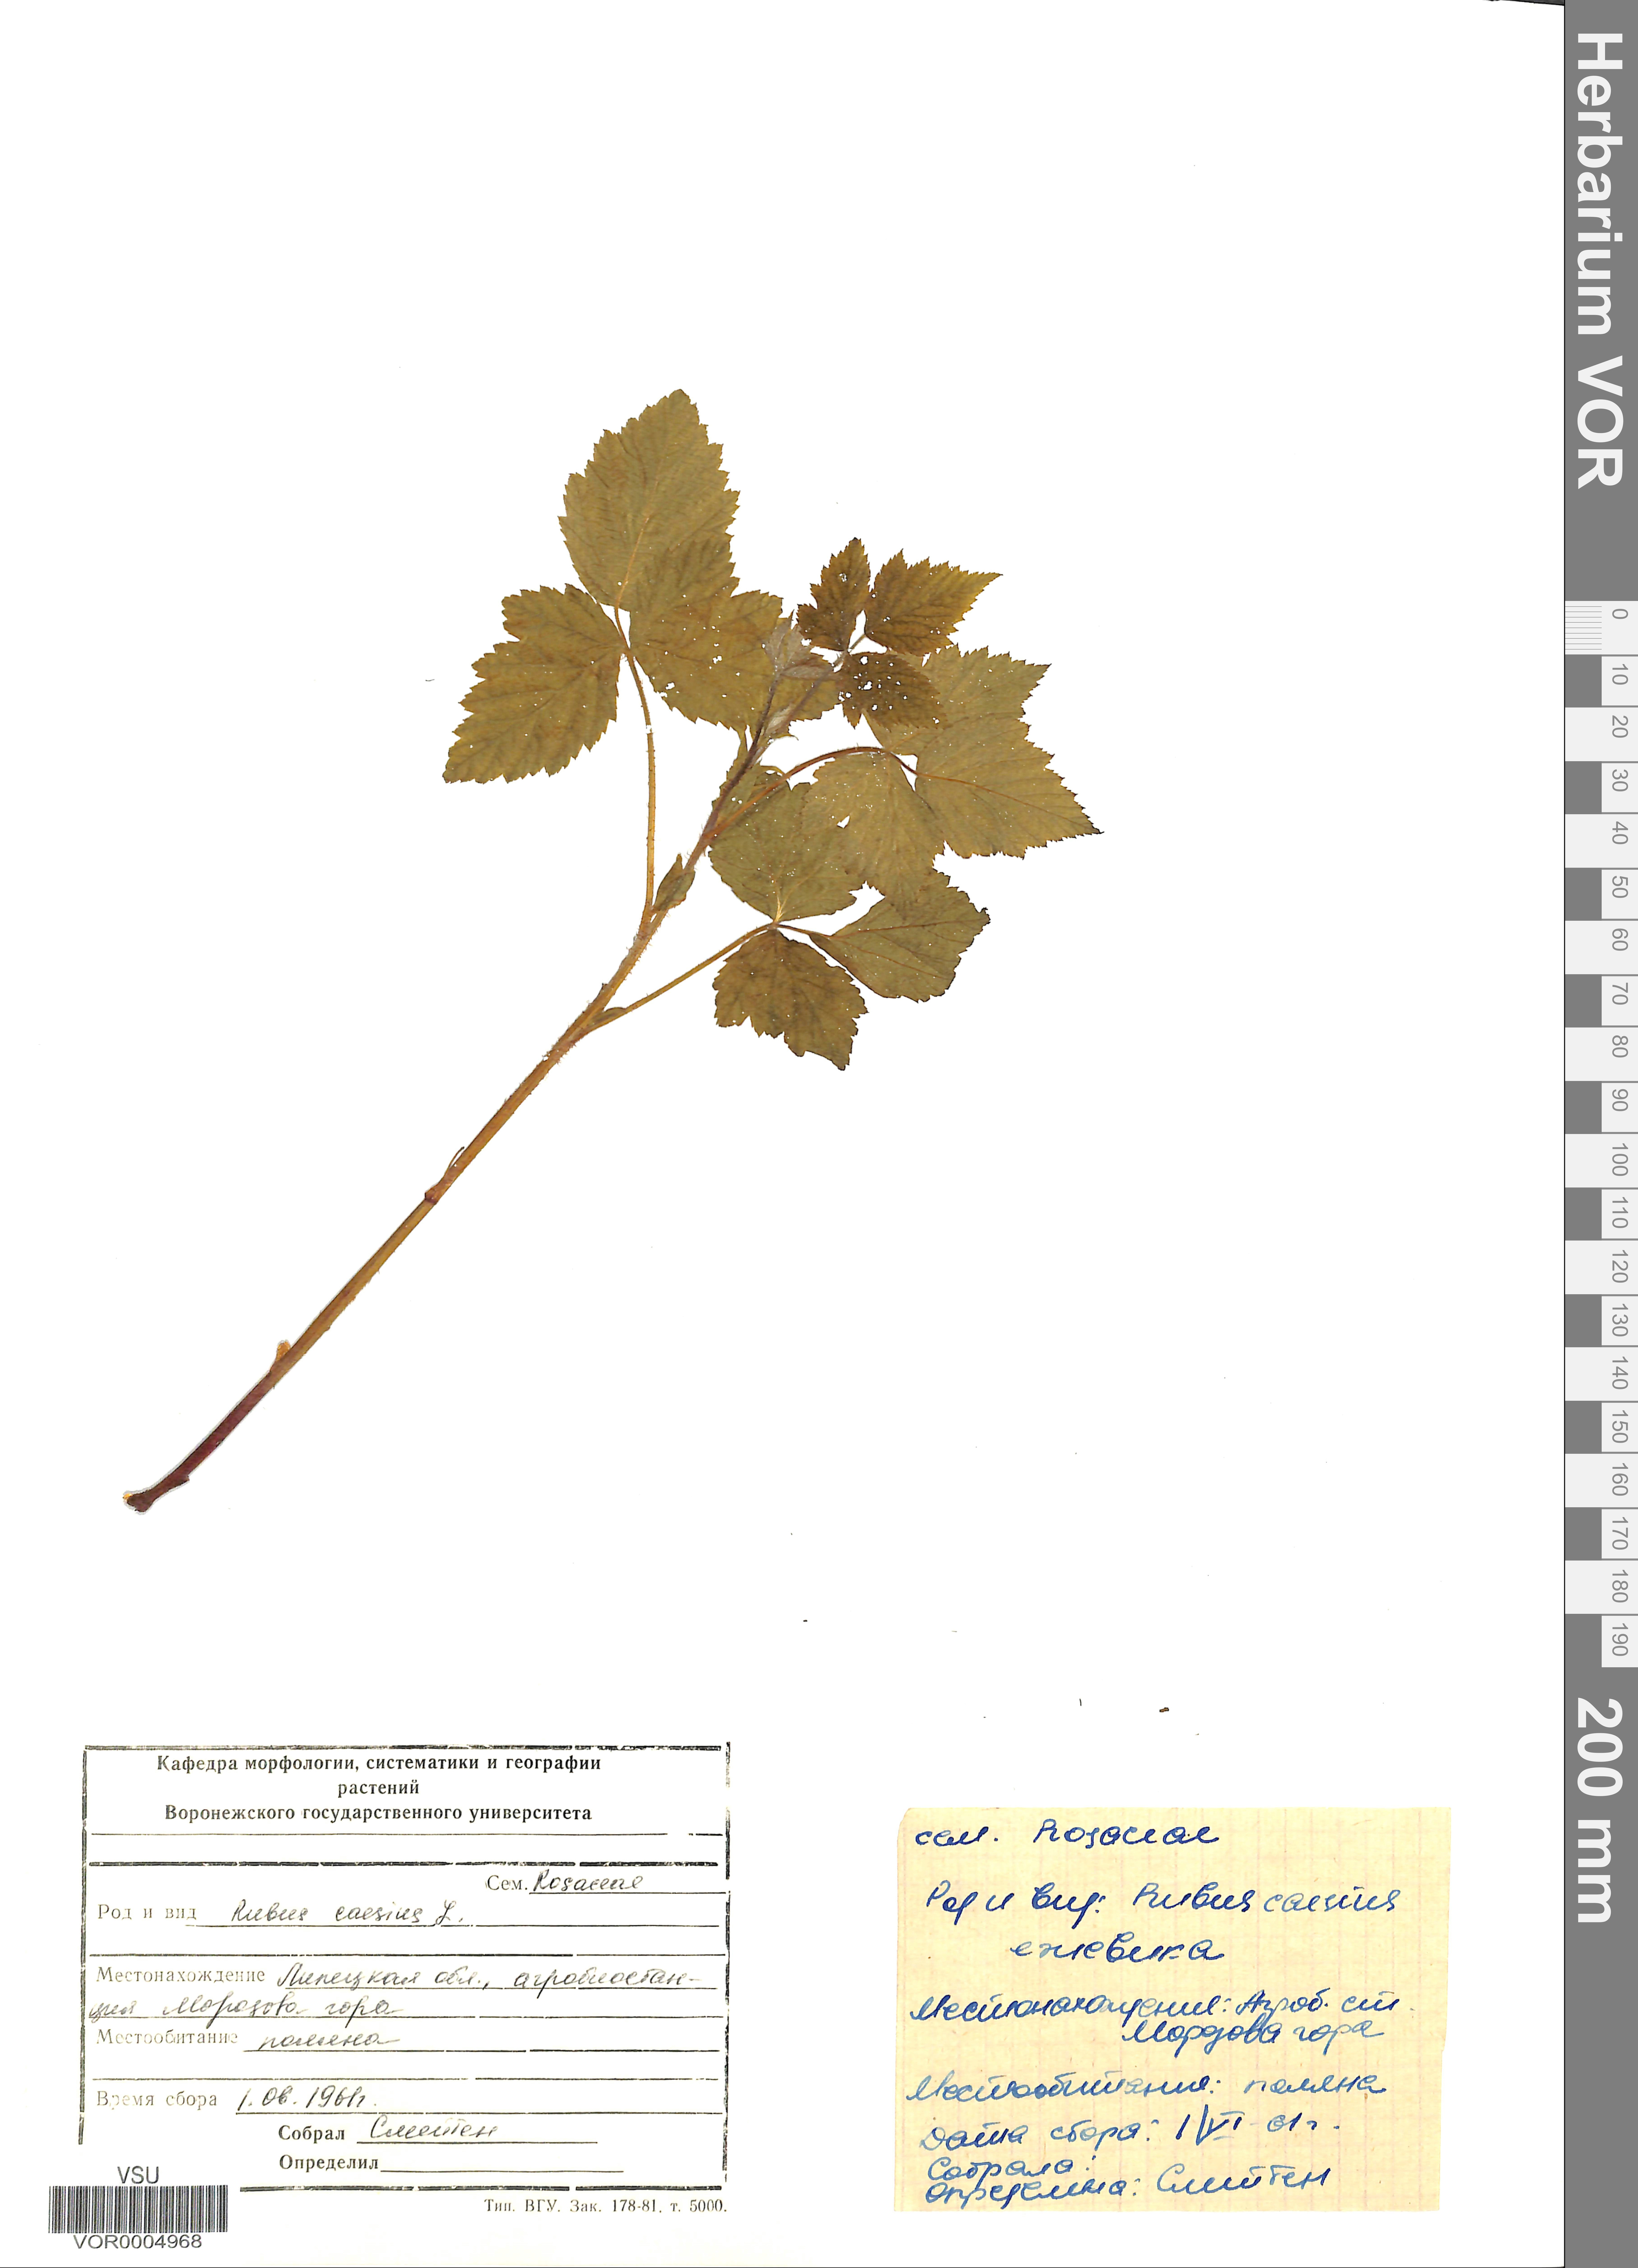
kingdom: Plantae
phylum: Tracheophyta
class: Magnoliopsida
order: Rosales
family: Rosaceae
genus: Rubus
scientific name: Rubus caesius
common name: Dewberry
